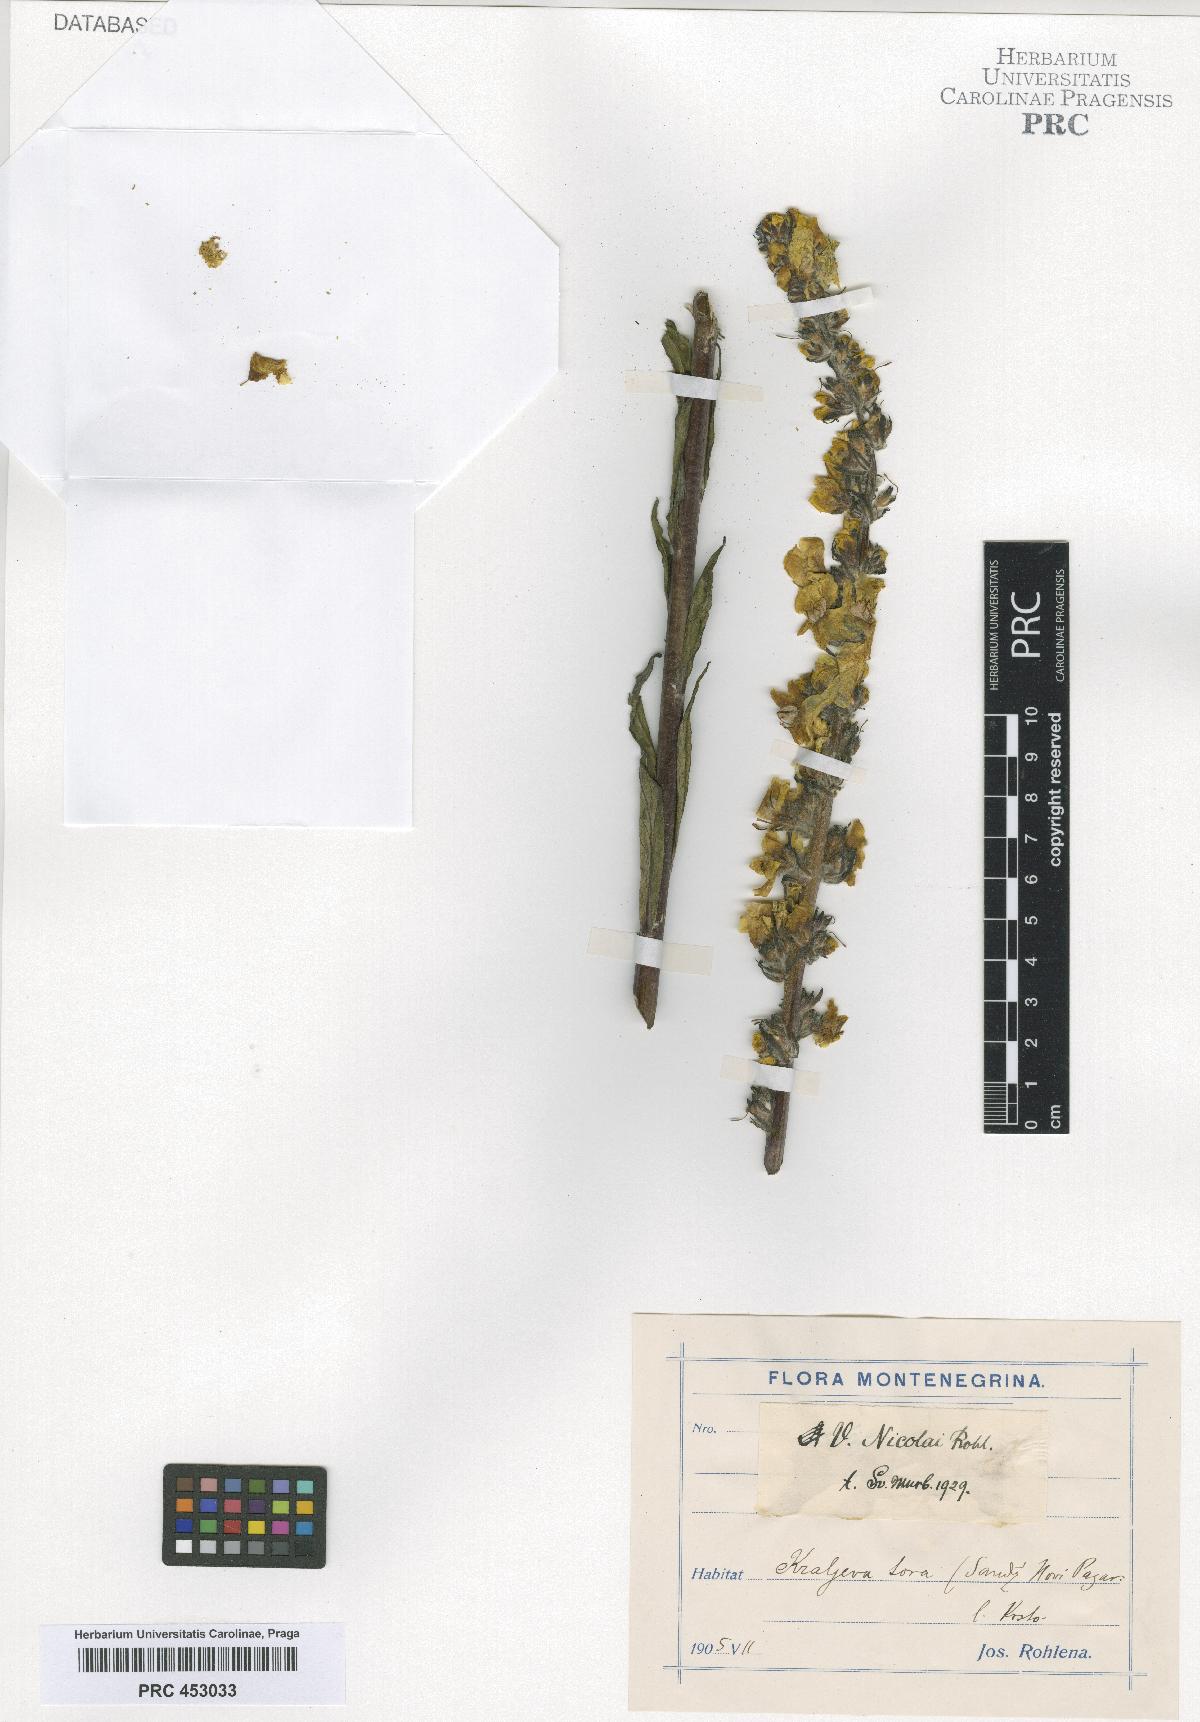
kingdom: Plantae
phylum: Tracheophyta
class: Magnoliopsida
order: Lamiales
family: Scrophulariaceae
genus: Verbascum
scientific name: Verbascum nicolai
